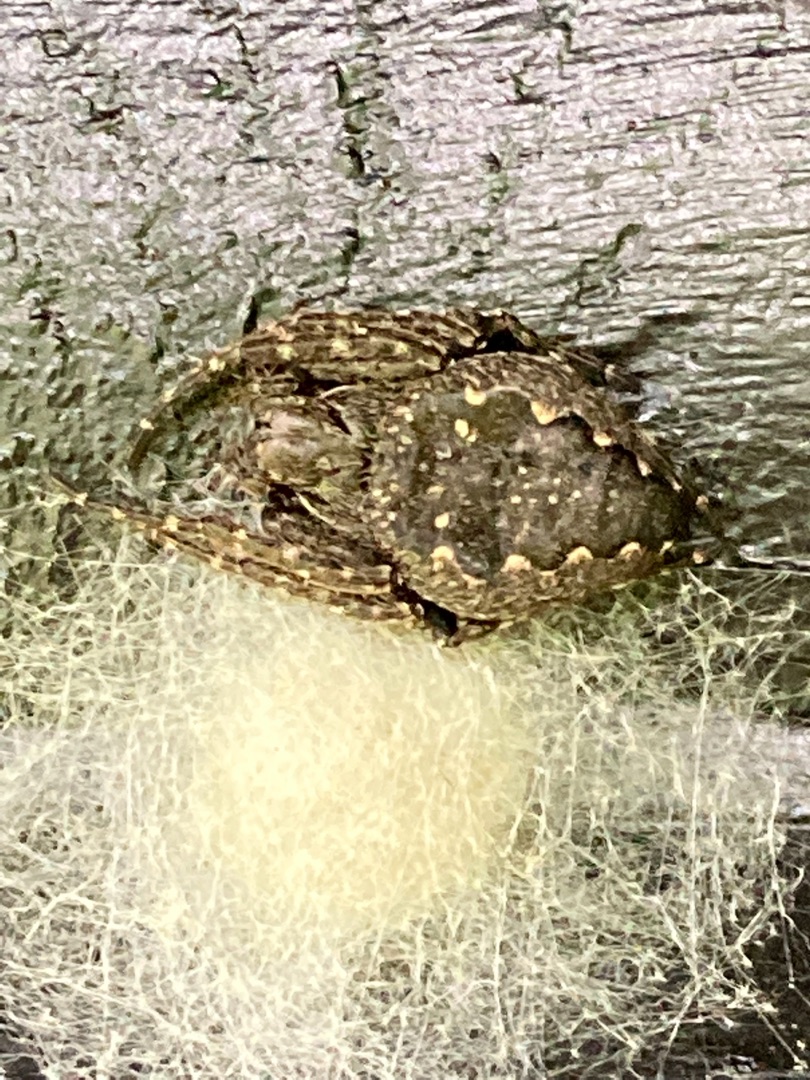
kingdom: Animalia
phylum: Arthropoda
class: Arachnida
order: Araneae
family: Araneidae
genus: Nuctenea
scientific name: Nuctenea umbratica
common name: Flad hjulspinder
